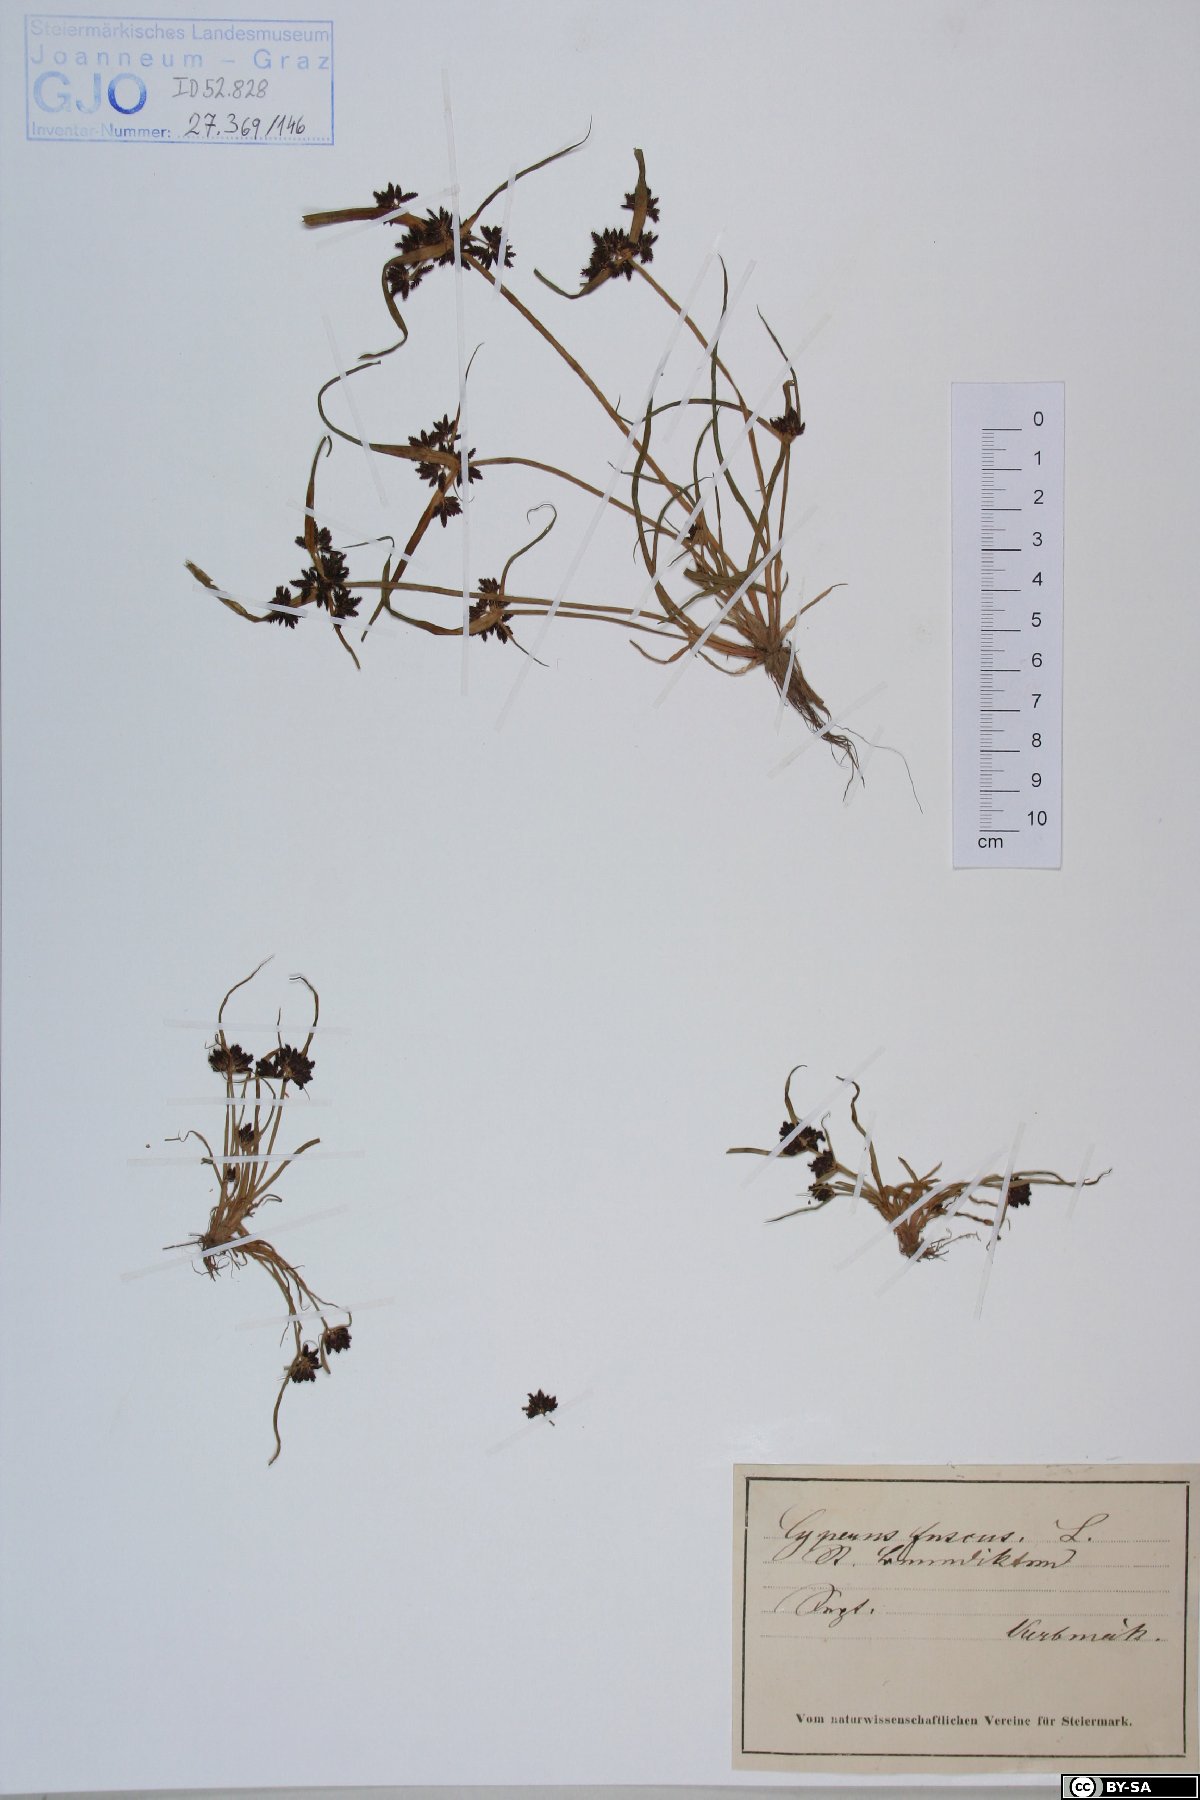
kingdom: Plantae
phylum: Tracheophyta
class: Liliopsida
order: Poales
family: Cyperaceae
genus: Cyperus
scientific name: Cyperus fuscus
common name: Brown galingale
